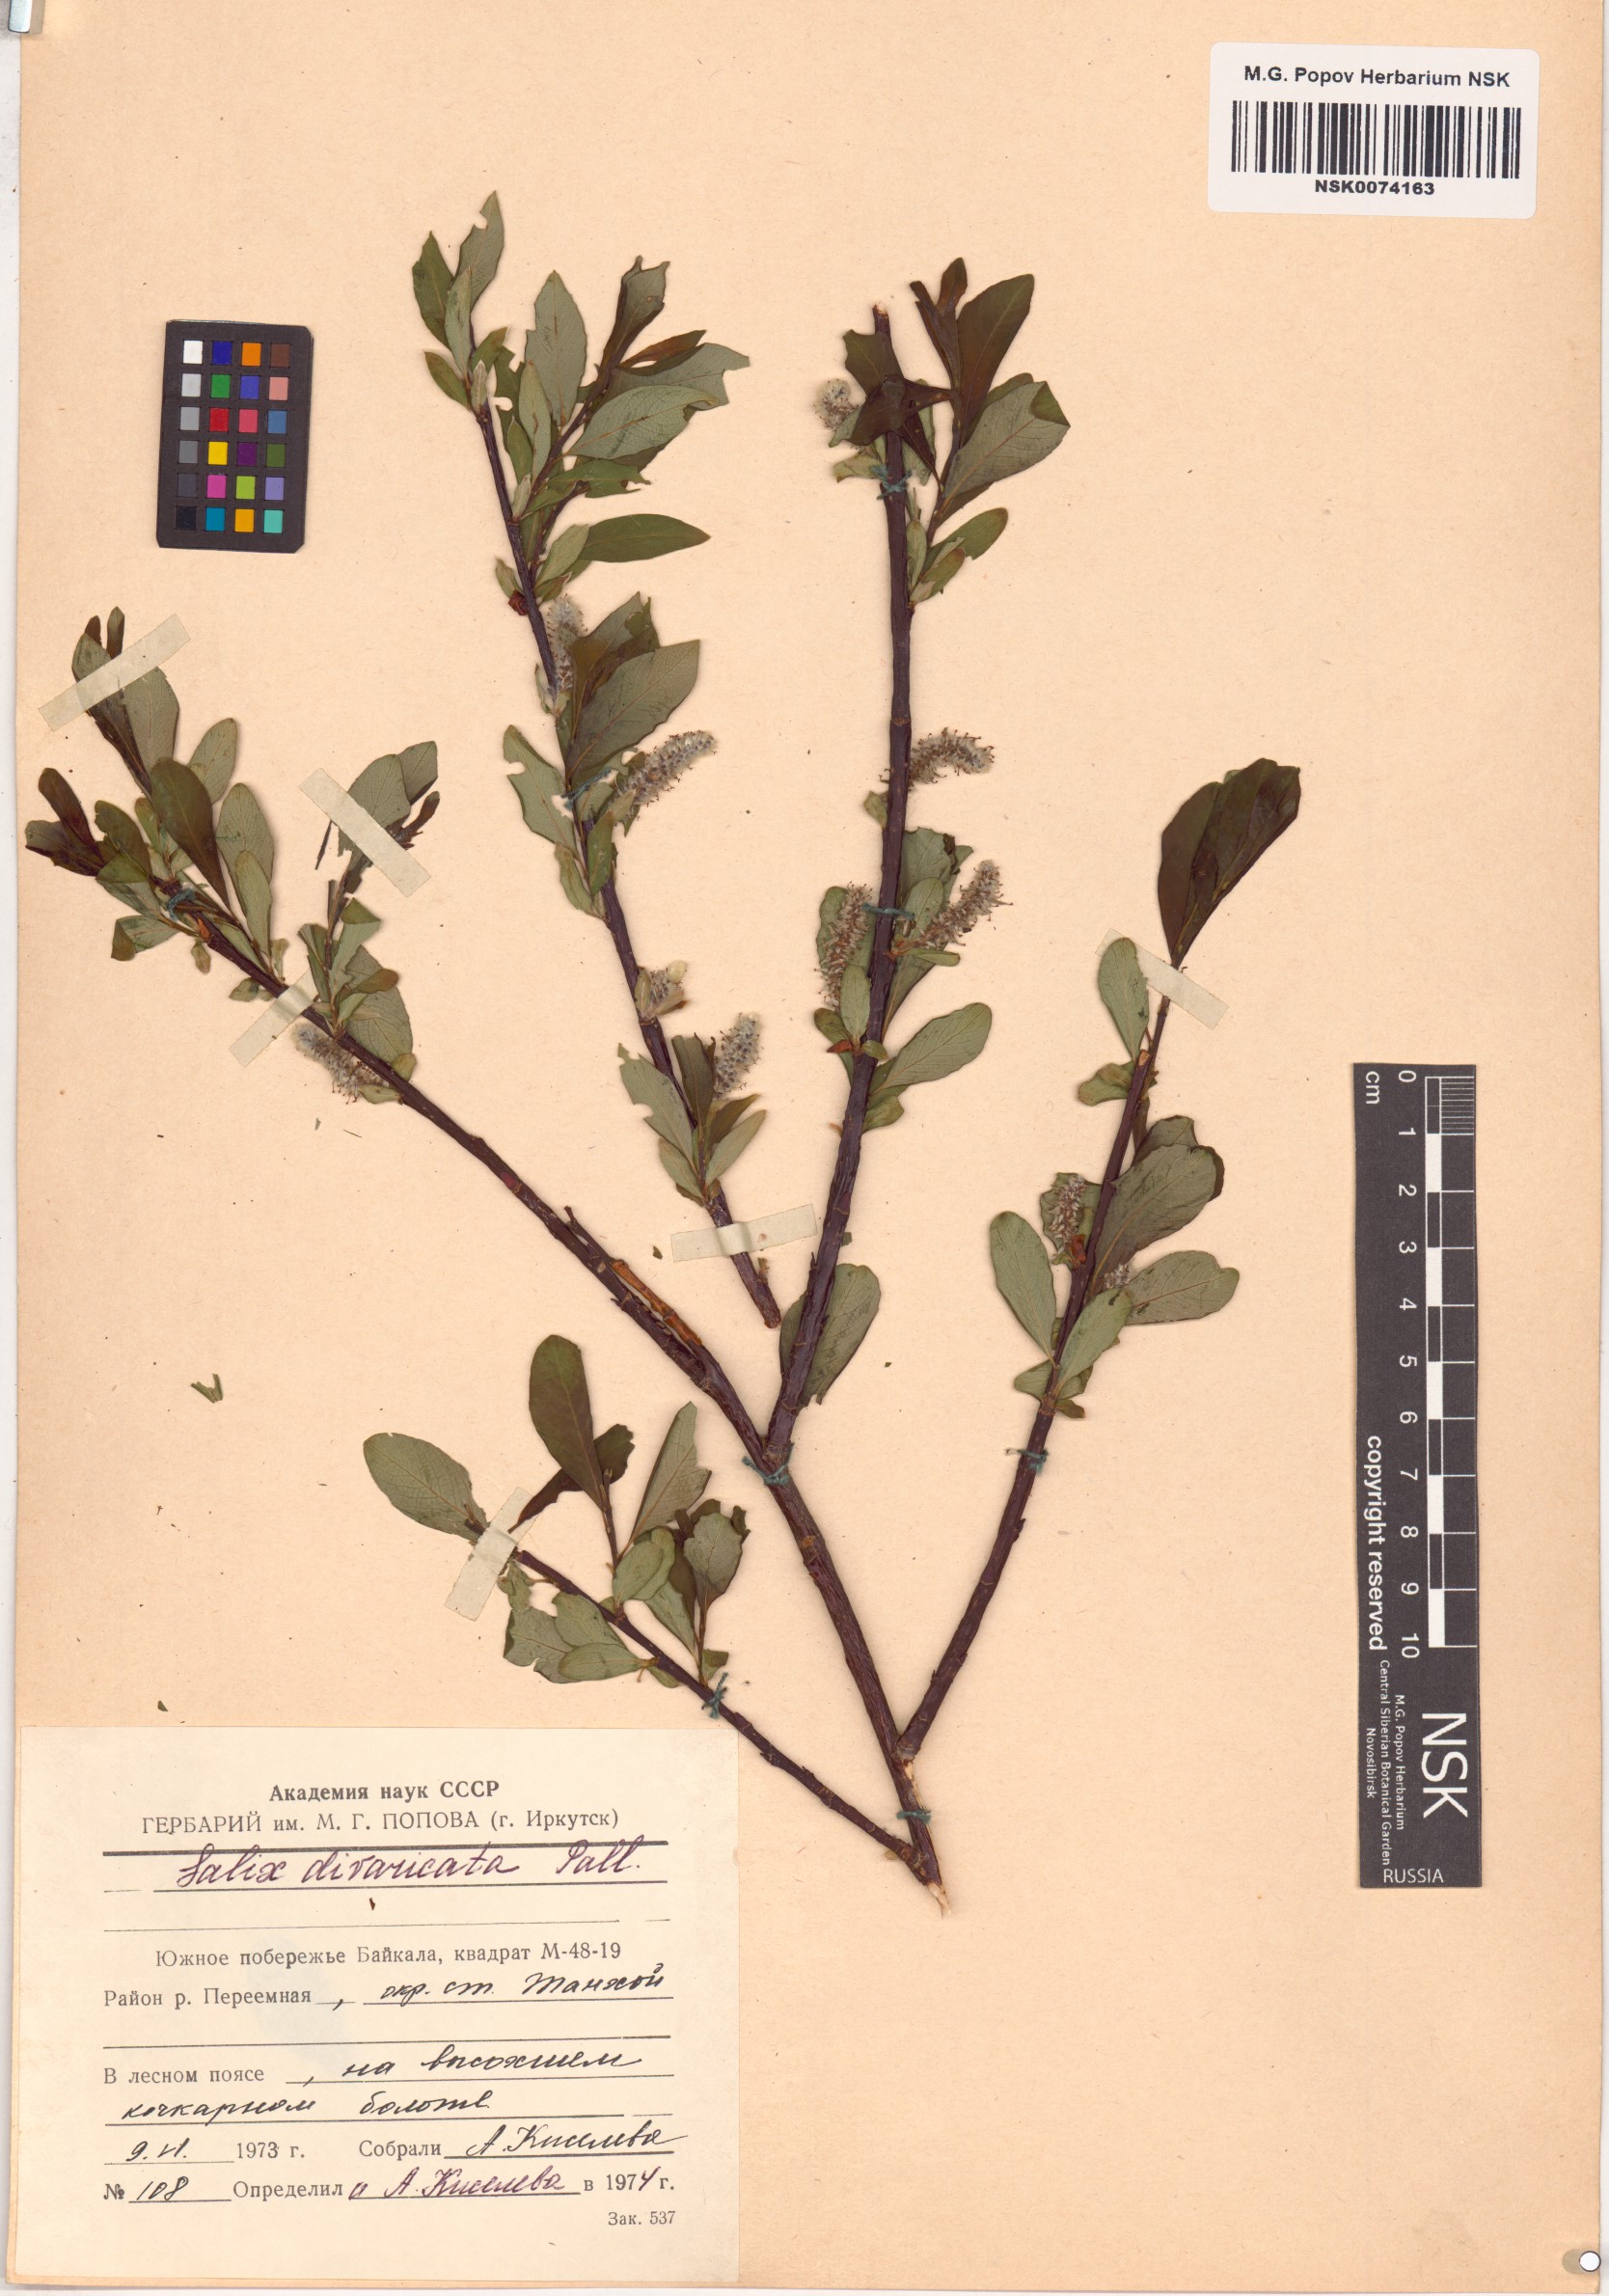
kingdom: Plantae
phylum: Tracheophyta
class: Magnoliopsida
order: Malpighiales
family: Salicaceae
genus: Salix
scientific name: Salix divaricata
